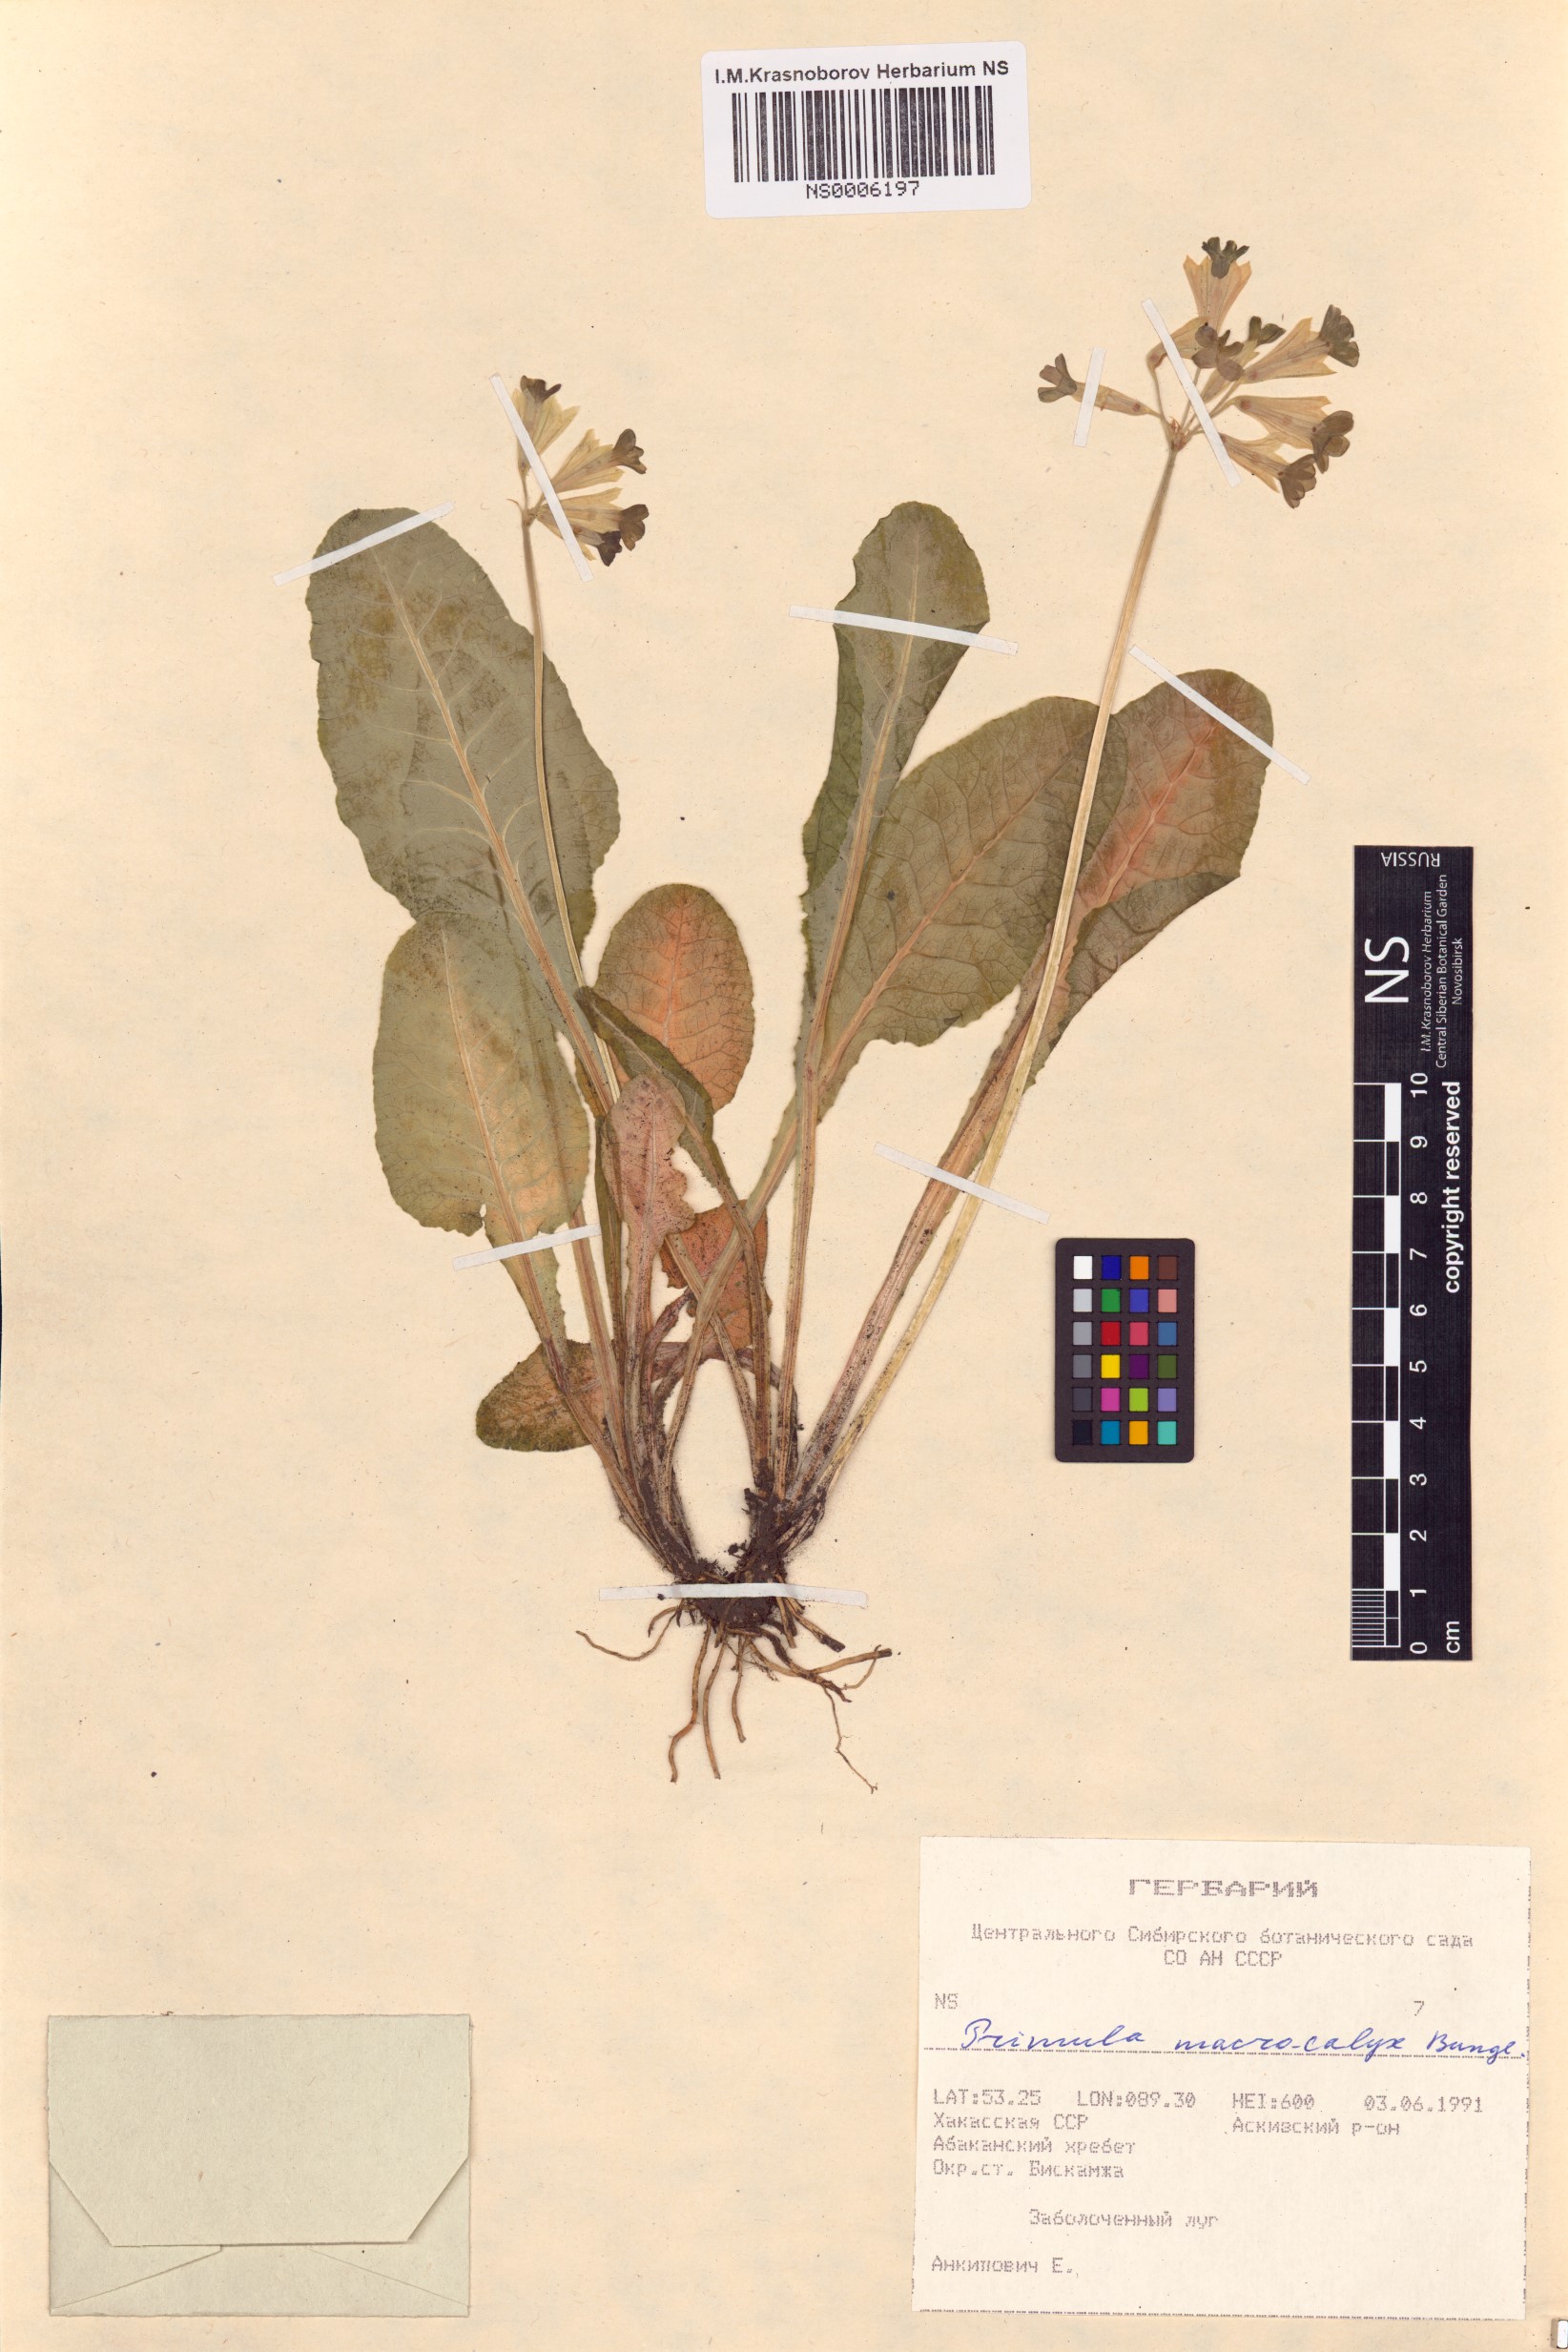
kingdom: Plantae
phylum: Tracheophyta
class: Magnoliopsida
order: Ericales
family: Primulaceae
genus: Primula
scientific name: Primula veris
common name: Cowslip
